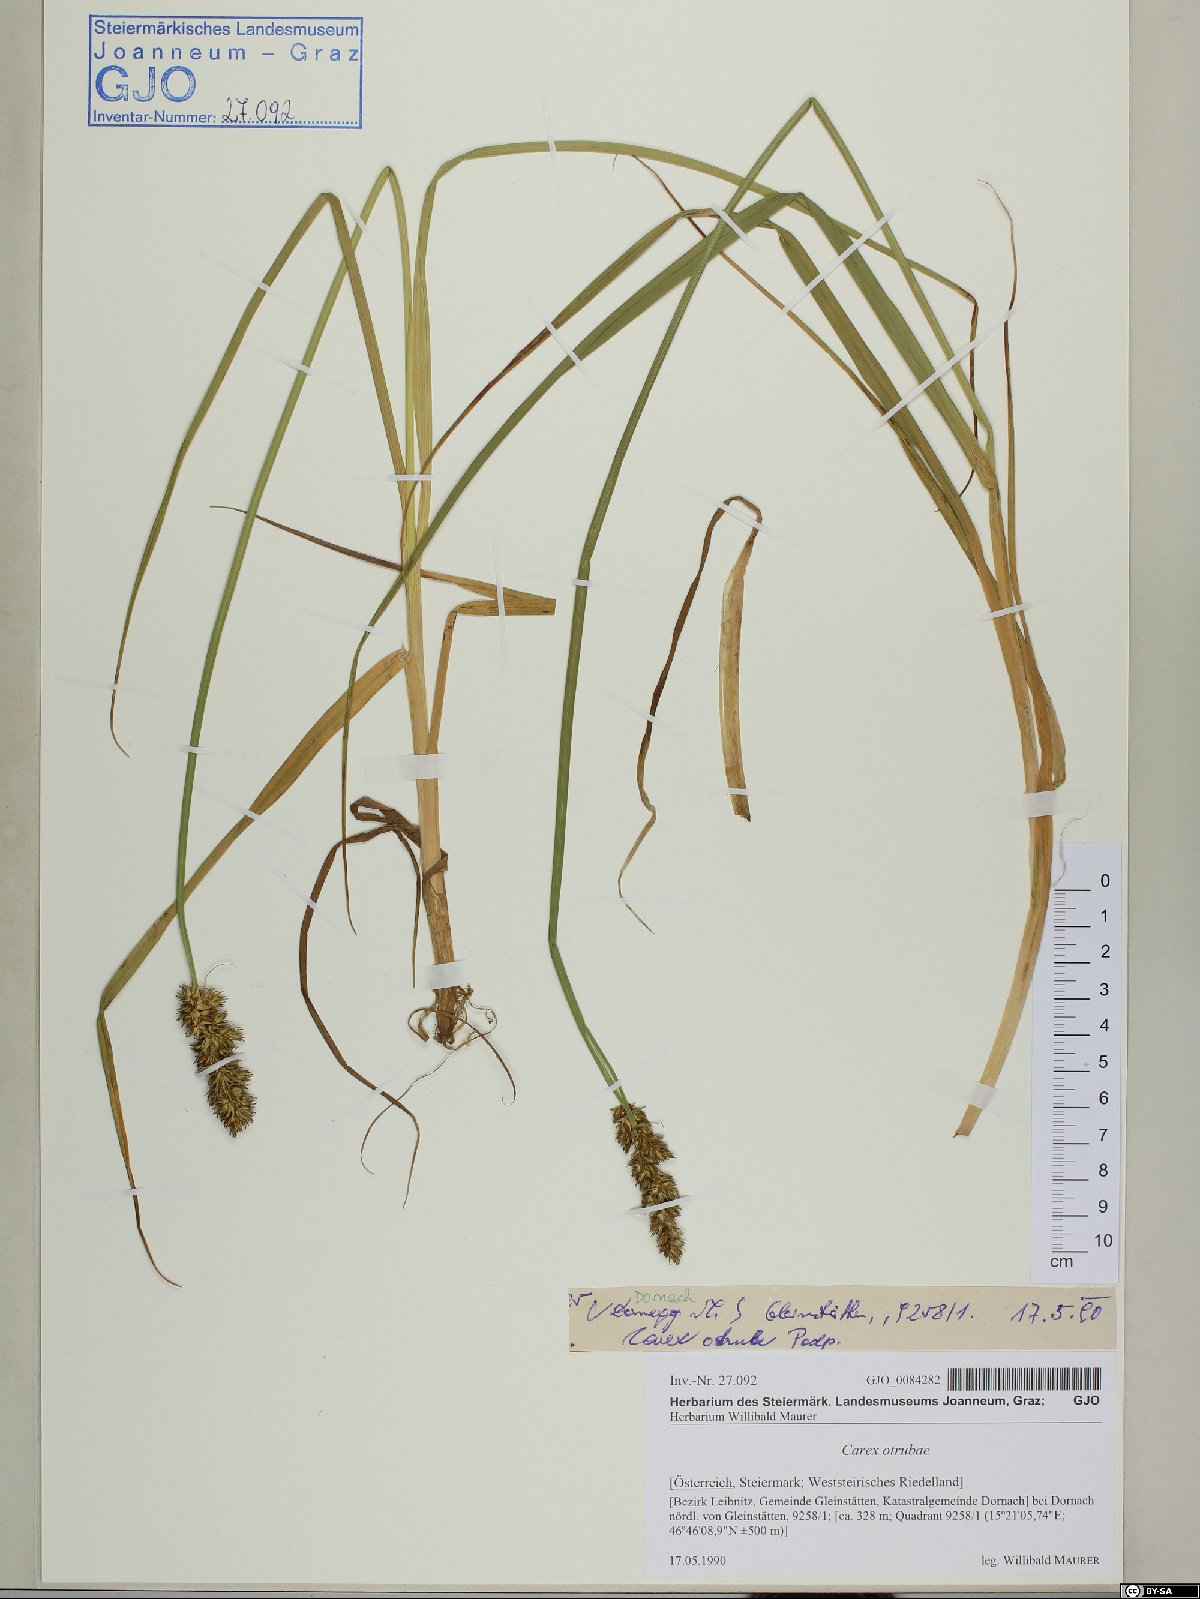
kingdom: Plantae
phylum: Tracheophyta
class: Liliopsida
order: Poales
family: Cyperaceae
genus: Carex
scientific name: Carex otrubae
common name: False fox-sedge
